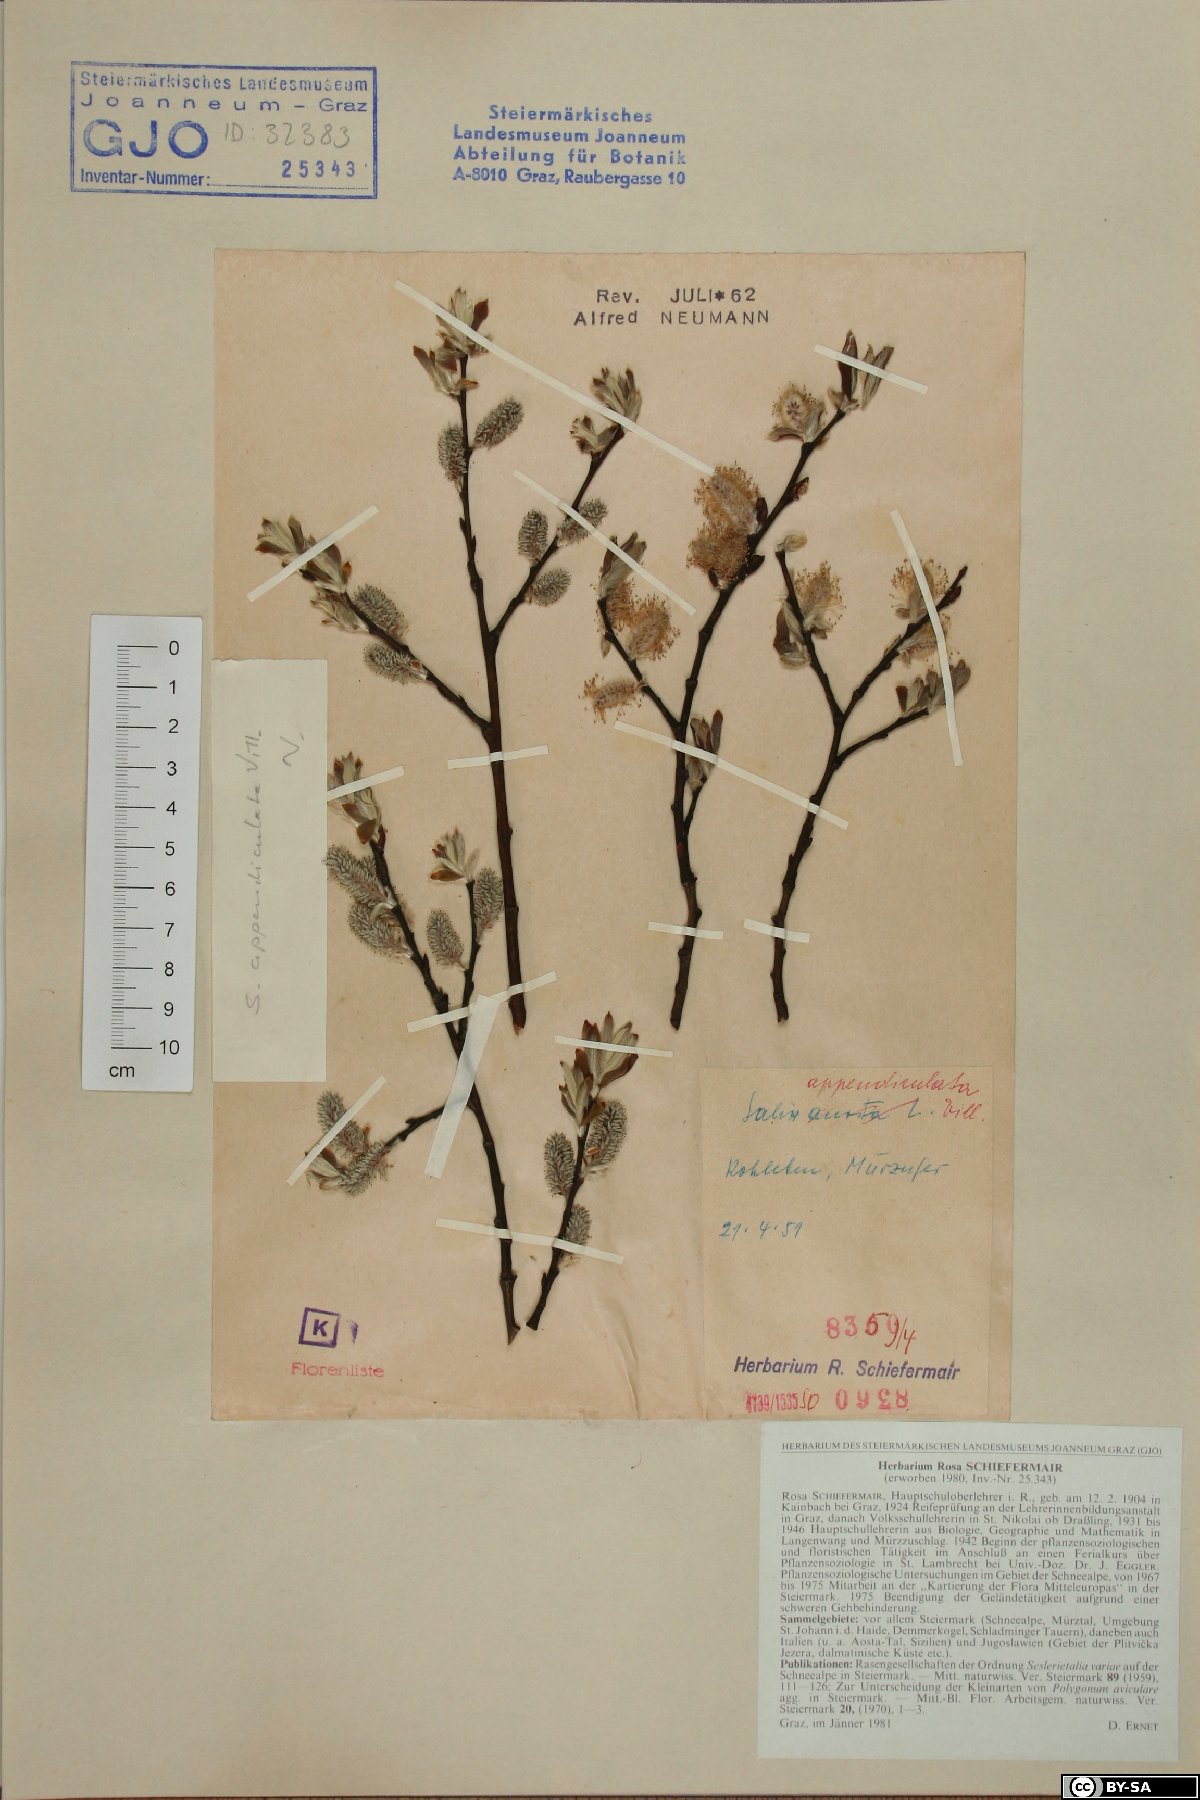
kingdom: Plantae
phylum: Tracheophyta
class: Magnoliopsida
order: Malpighiales
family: Salicaceae
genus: Salix
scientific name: Salix appendiculata
